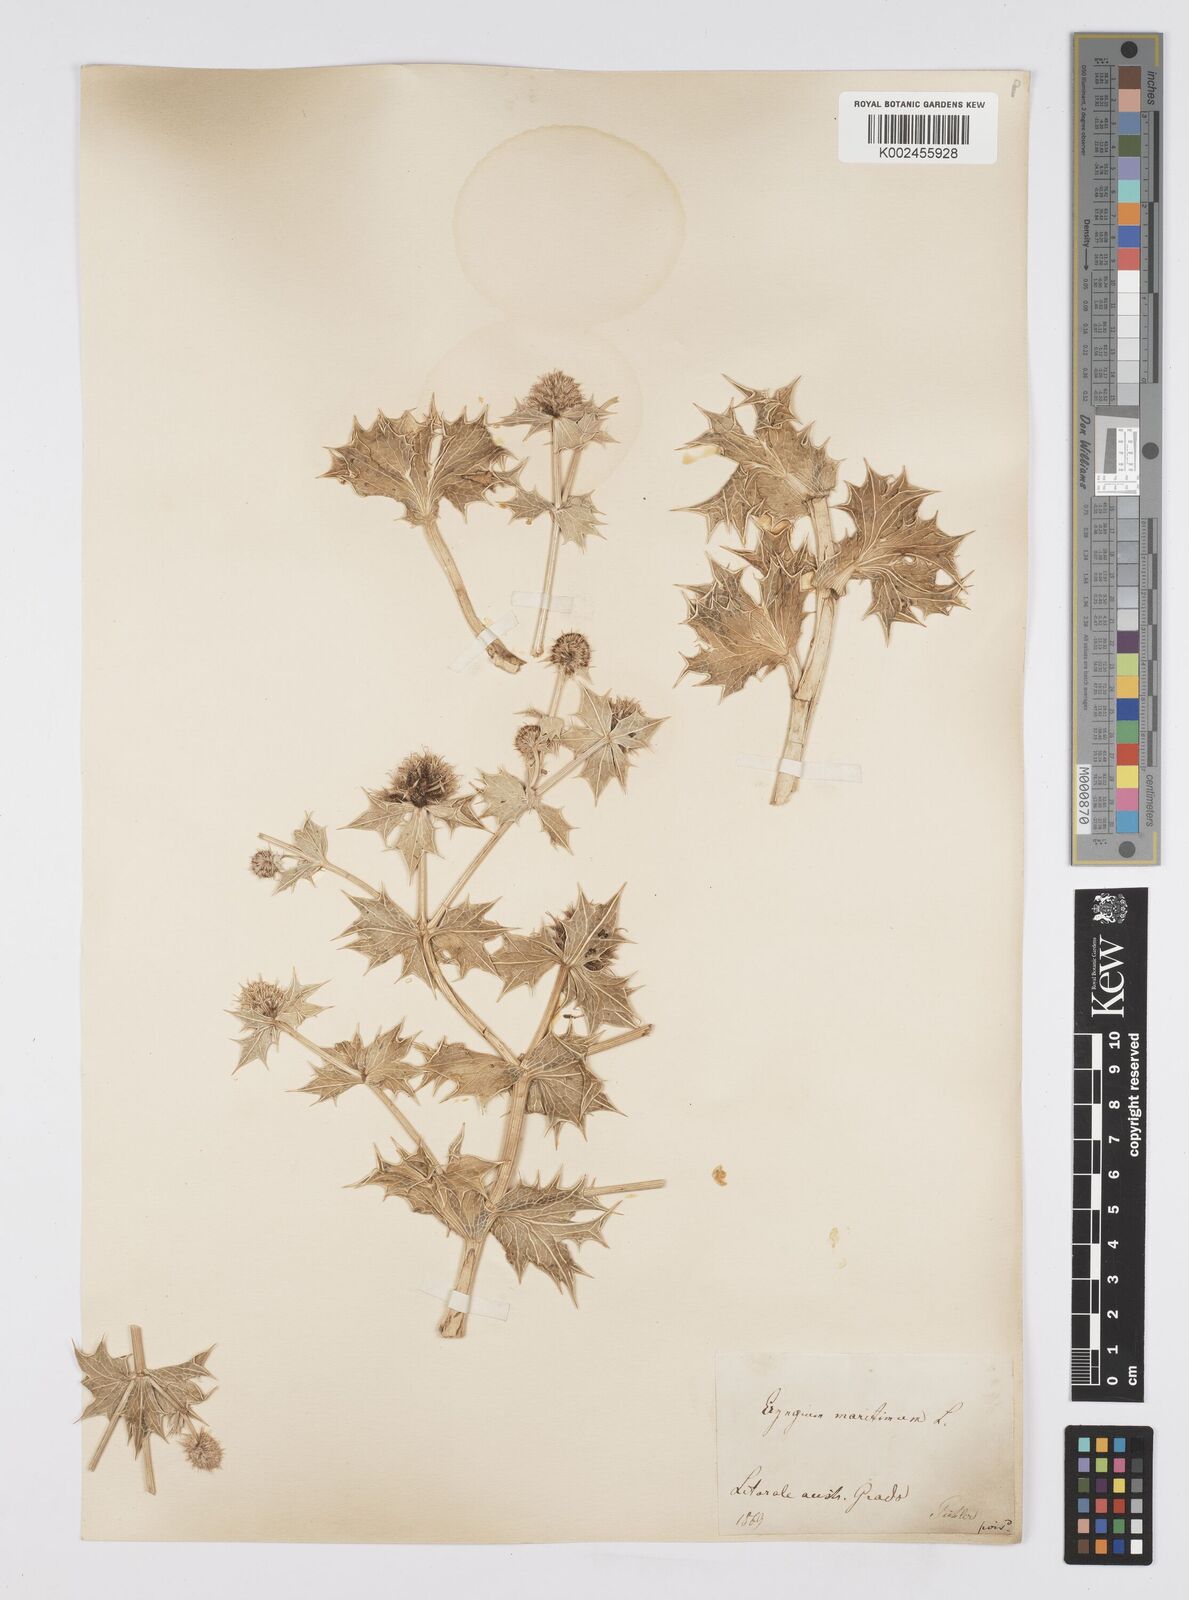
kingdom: Plantae
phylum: Tracheophyta
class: Magnoliopsida
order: Apiales
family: Apiaceae
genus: Eryngium
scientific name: Eryngium maritimum
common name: Sea-holly
